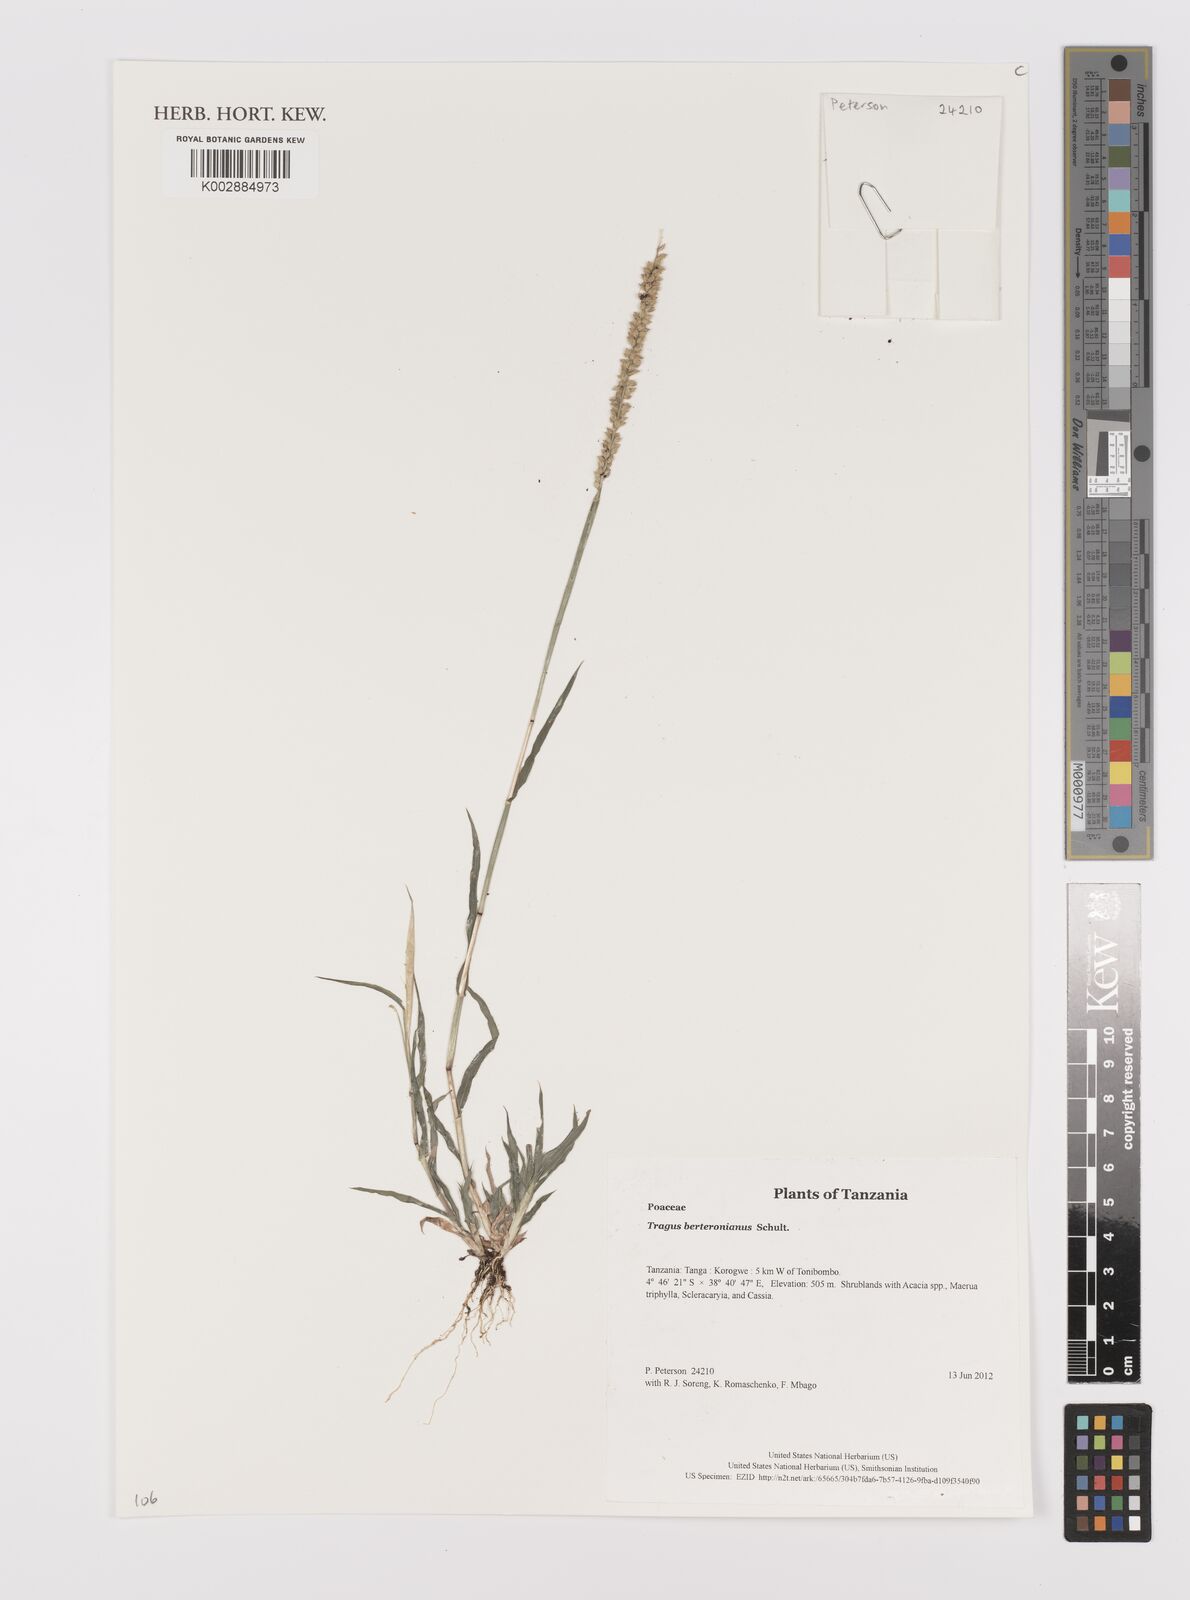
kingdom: Plantae
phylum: Tracheophyta
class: Liliopsida
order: Poales
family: Poaceae
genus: Tragus
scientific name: Tragus berteronianus
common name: African bur-grass
